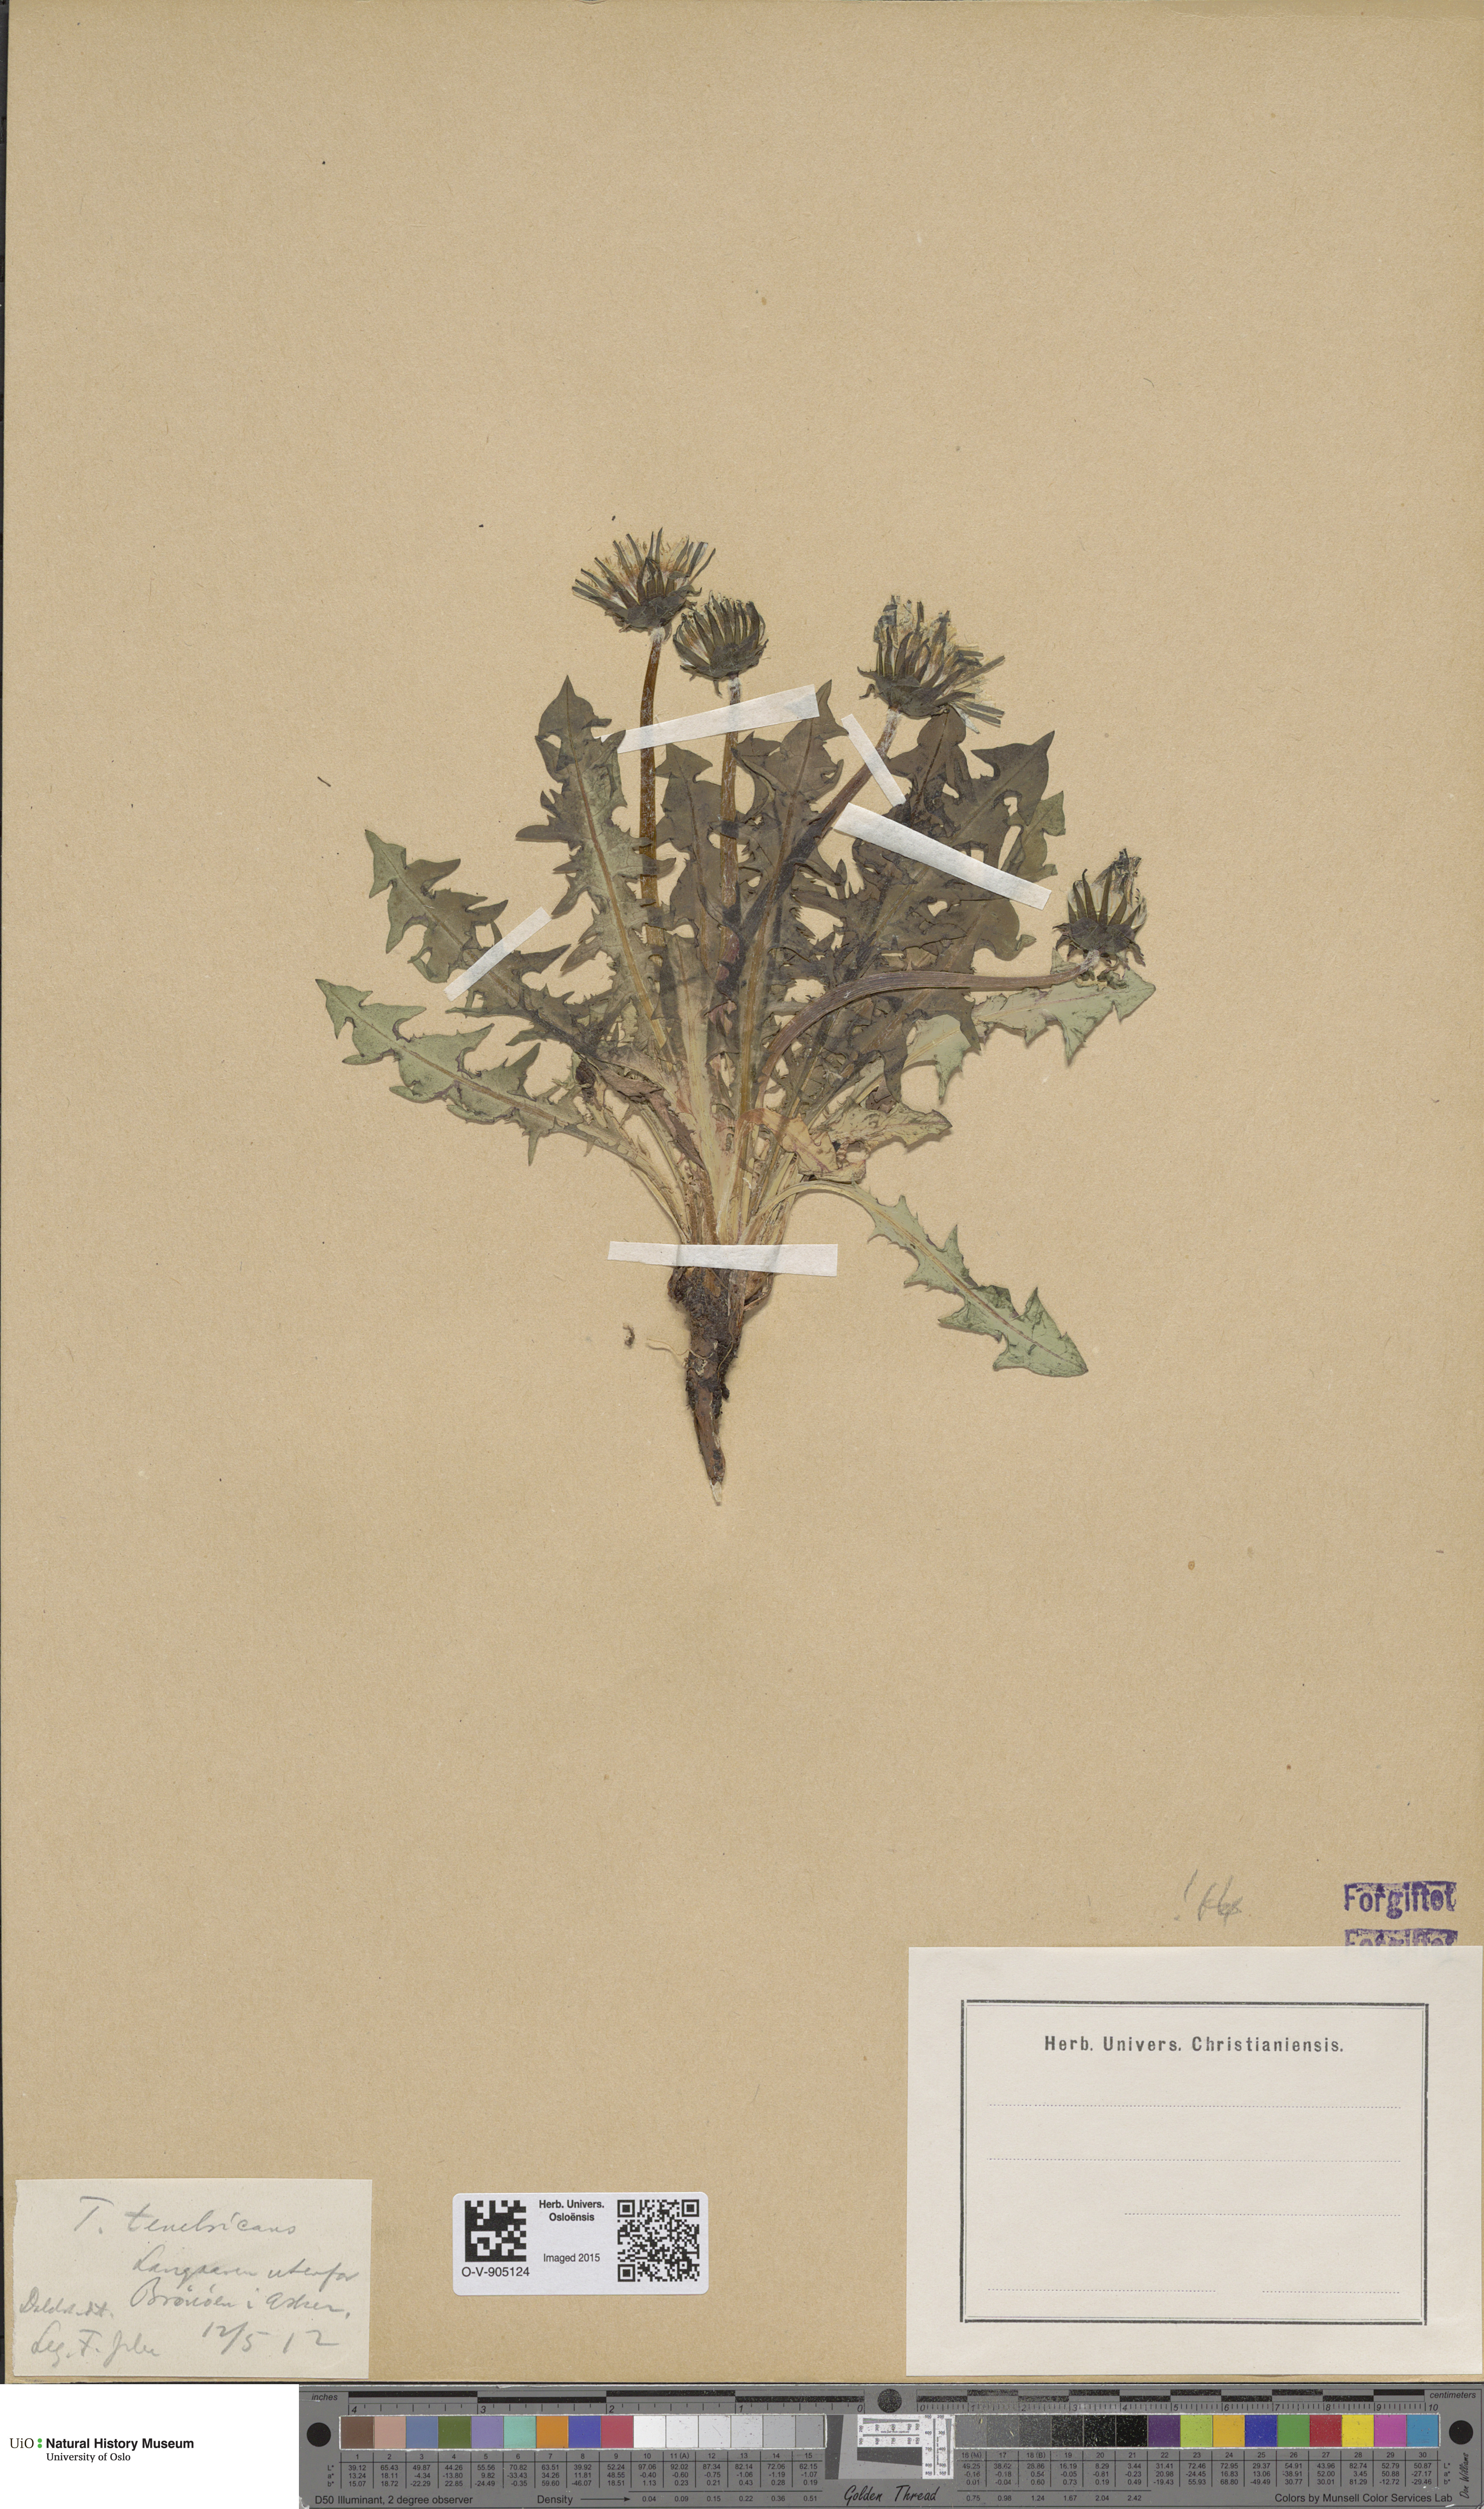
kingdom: Plantae
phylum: Tracheophyta
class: Magnoliopsida
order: Asterales
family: Asteraceae
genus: Taraxacum
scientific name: Taraxacum tenebricans
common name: Shiny-leaved dandelion
